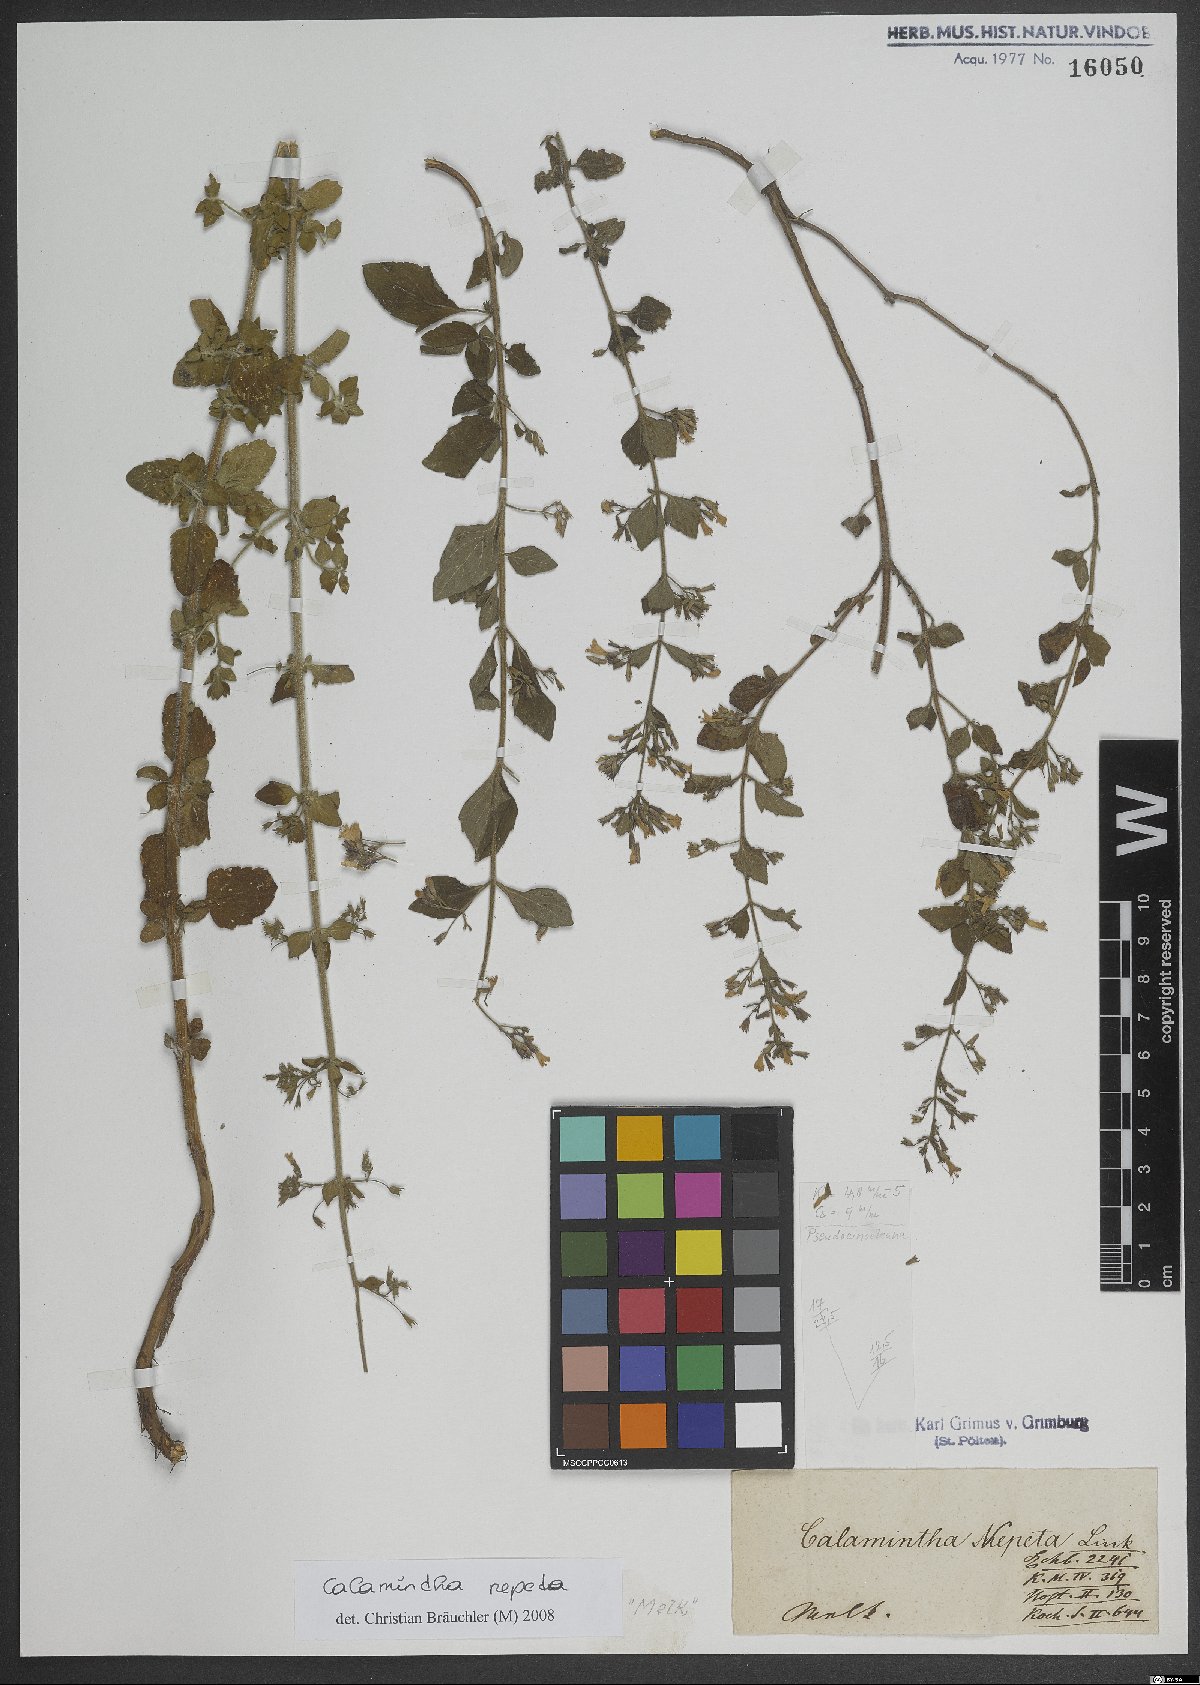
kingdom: Plantae
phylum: Tracheophyta
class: Magnoliopsida
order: Lamiales
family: Lamiaceae
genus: Clinopodium
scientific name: Clinopodium nepeta
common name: Lesser calamint
